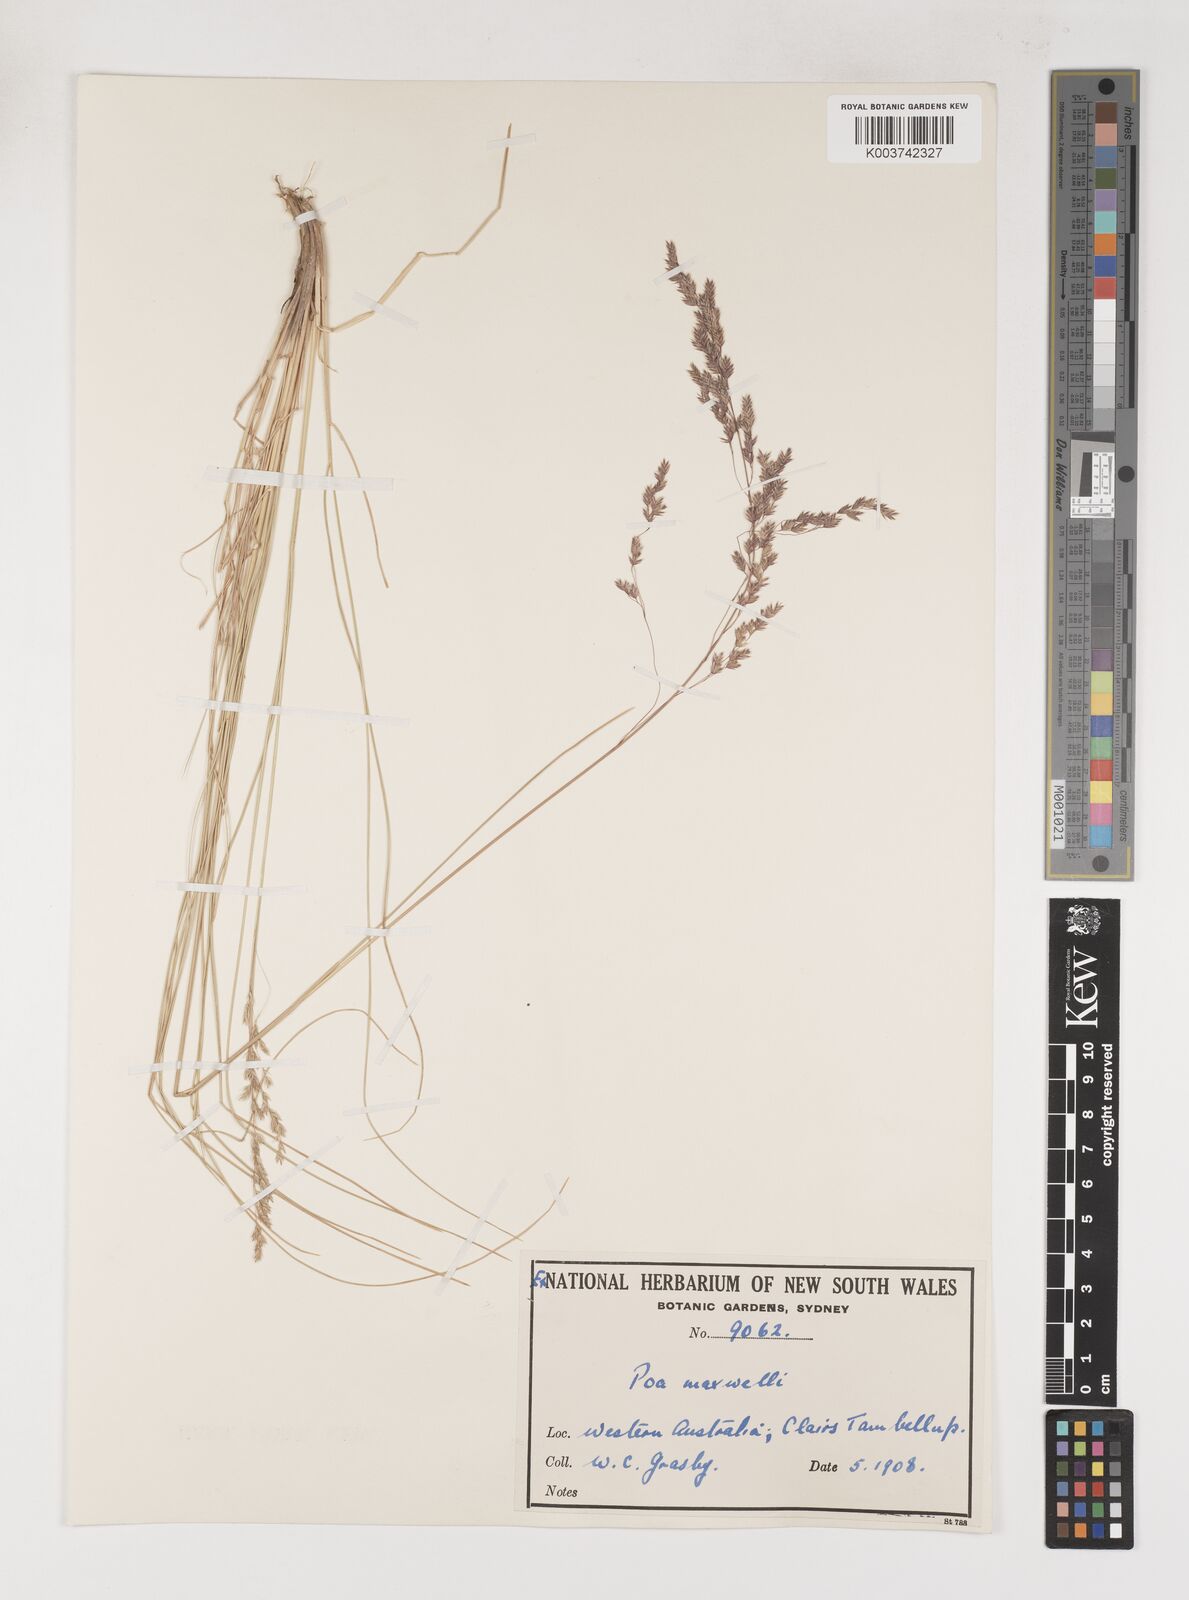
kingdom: Plantae
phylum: Tracheophyta
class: Liliopsida
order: Poales
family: Poaceae
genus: Poa
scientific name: Poa porphyroclados
